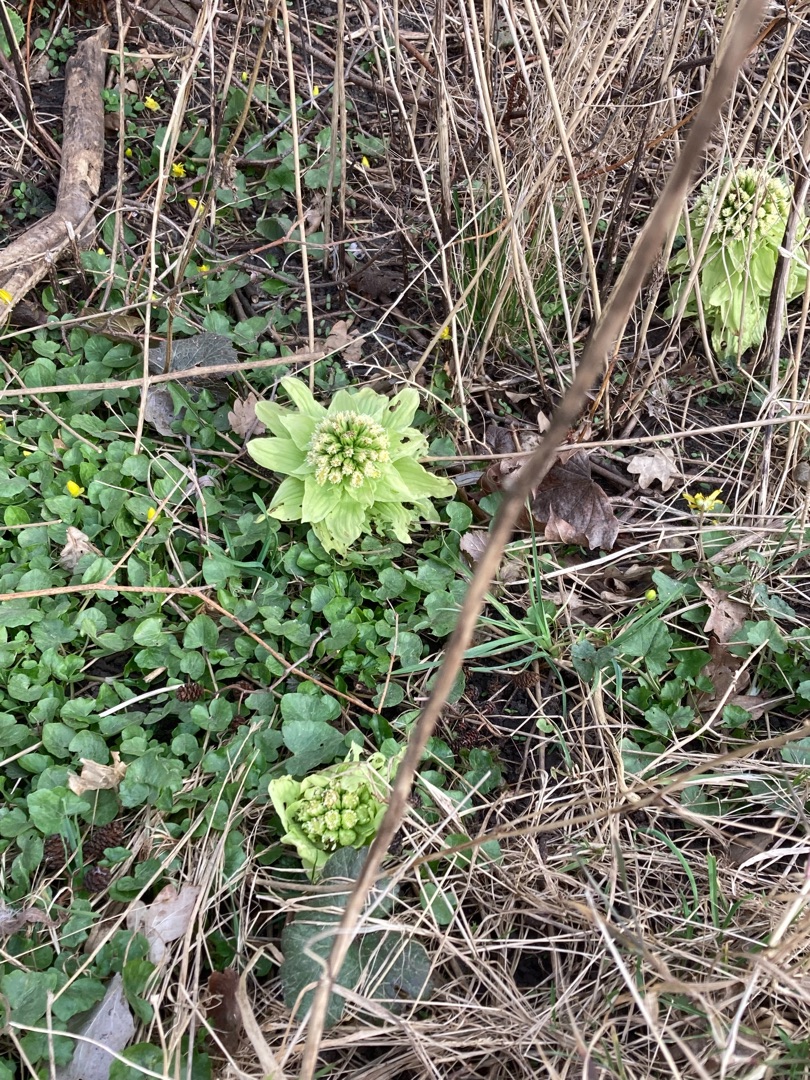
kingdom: Plantae
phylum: Tracheophyta
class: Magnoliopsida
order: Asterales
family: Asteraceae
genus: Petasites
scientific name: Petasites japonicus
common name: Japansk hestehov
